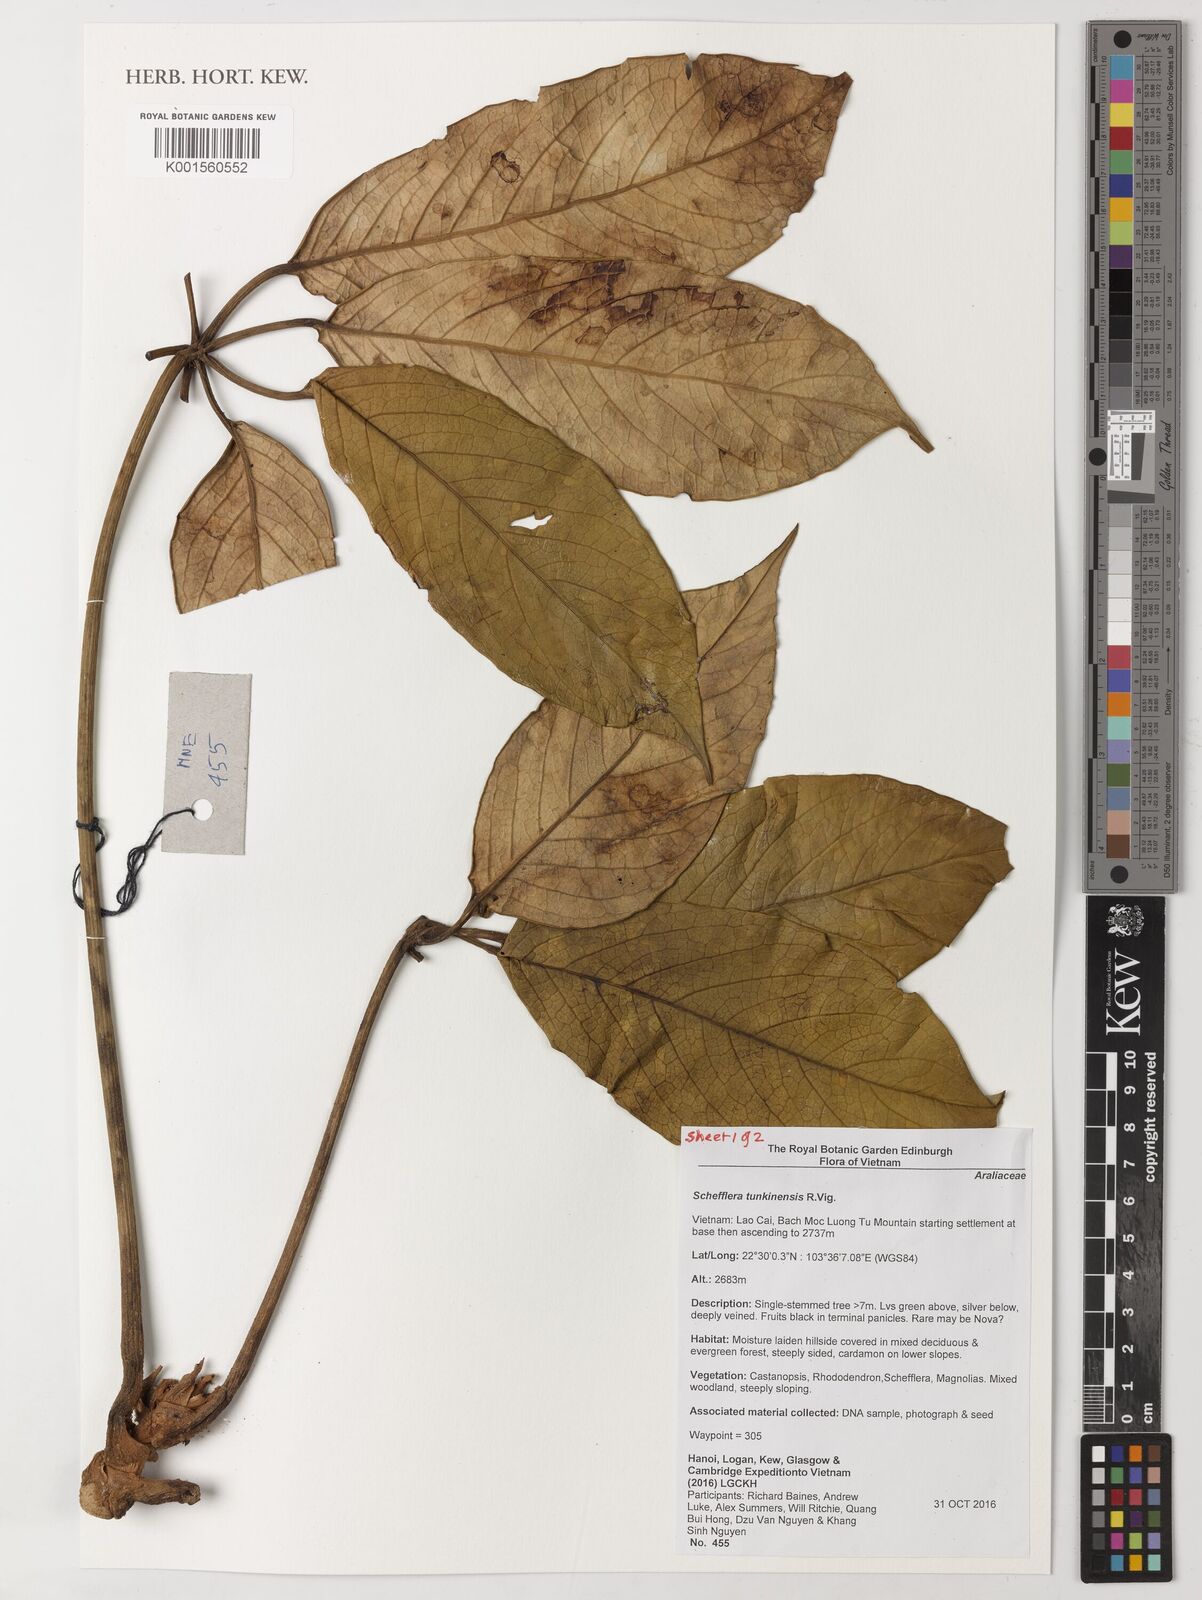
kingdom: Plantae
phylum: Tracheophyta
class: Magnoliopsida
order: Apiales
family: Araliaceae
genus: Heptapleurum
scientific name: Heptapleurum tunkinense
